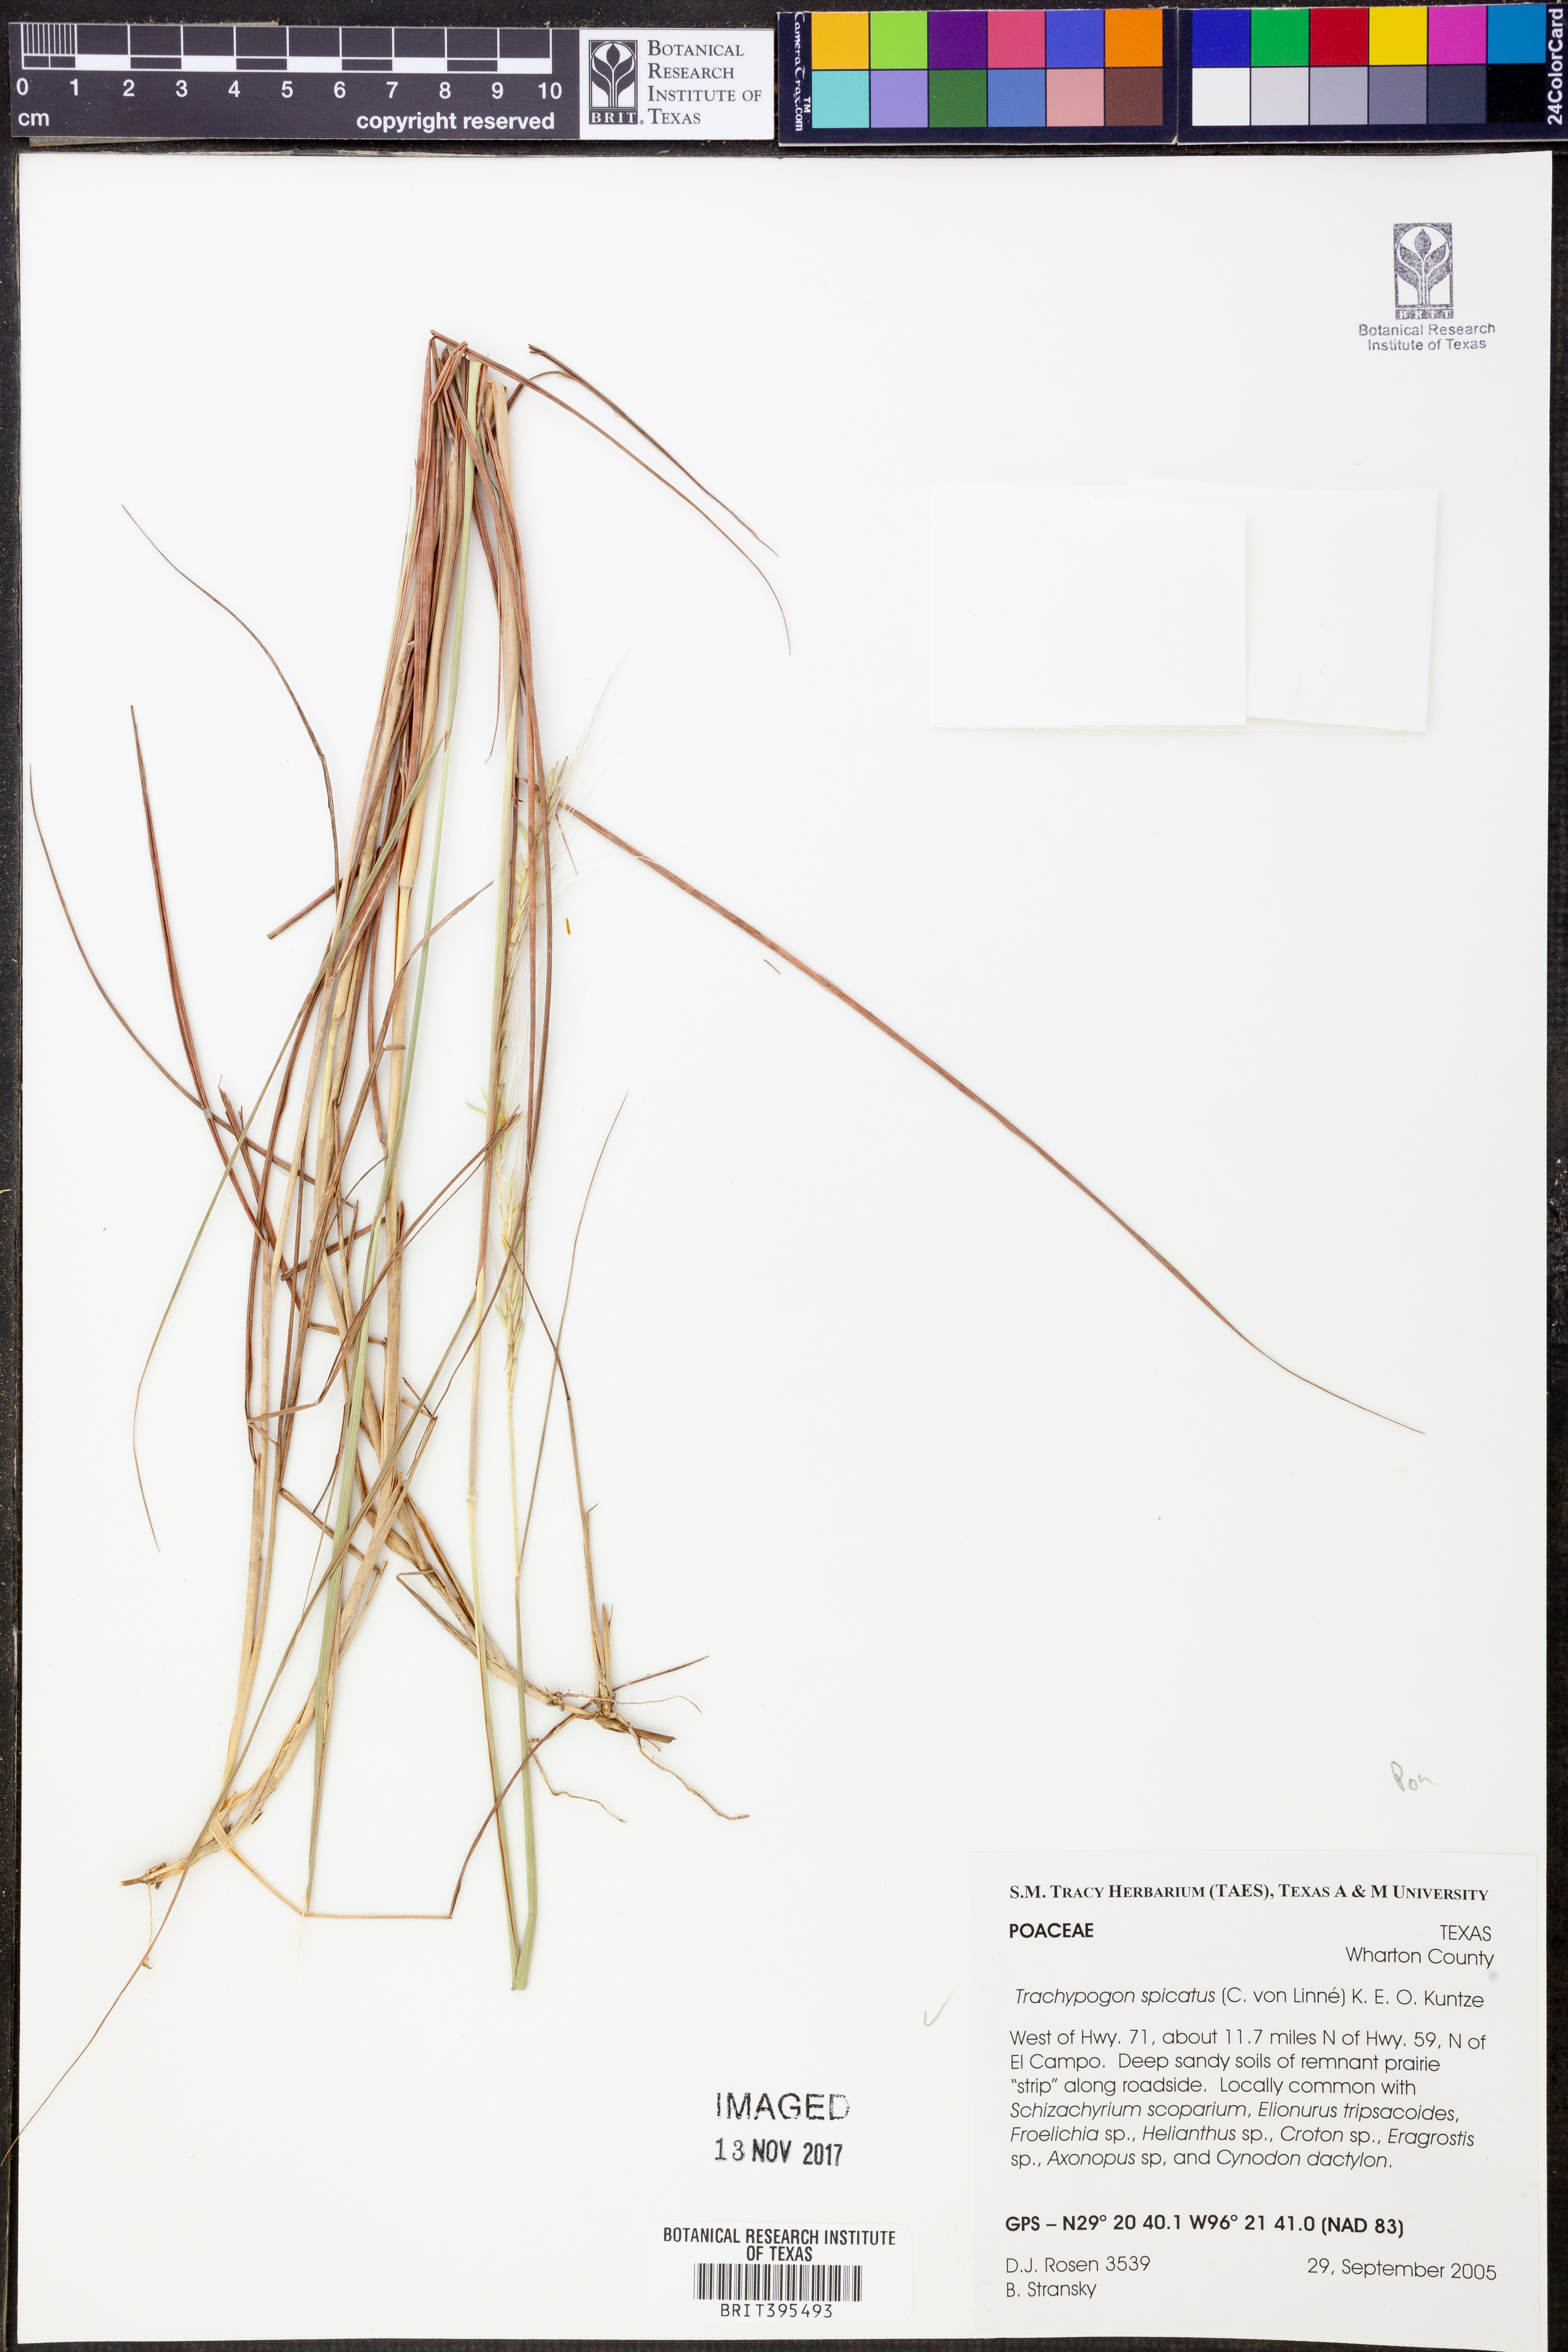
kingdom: Plantae
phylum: Tracheophyta
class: Liliopsida
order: Poales
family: Poaceae
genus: Trachypogon
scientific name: Trachypogon spicatus
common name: Crinkle-awn
